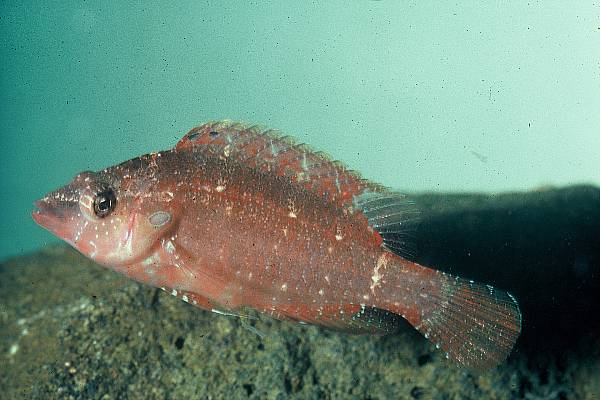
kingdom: Animalia
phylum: Chordata
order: Perciformes
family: Labridae
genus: Pteragogus
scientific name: Pteragogus
